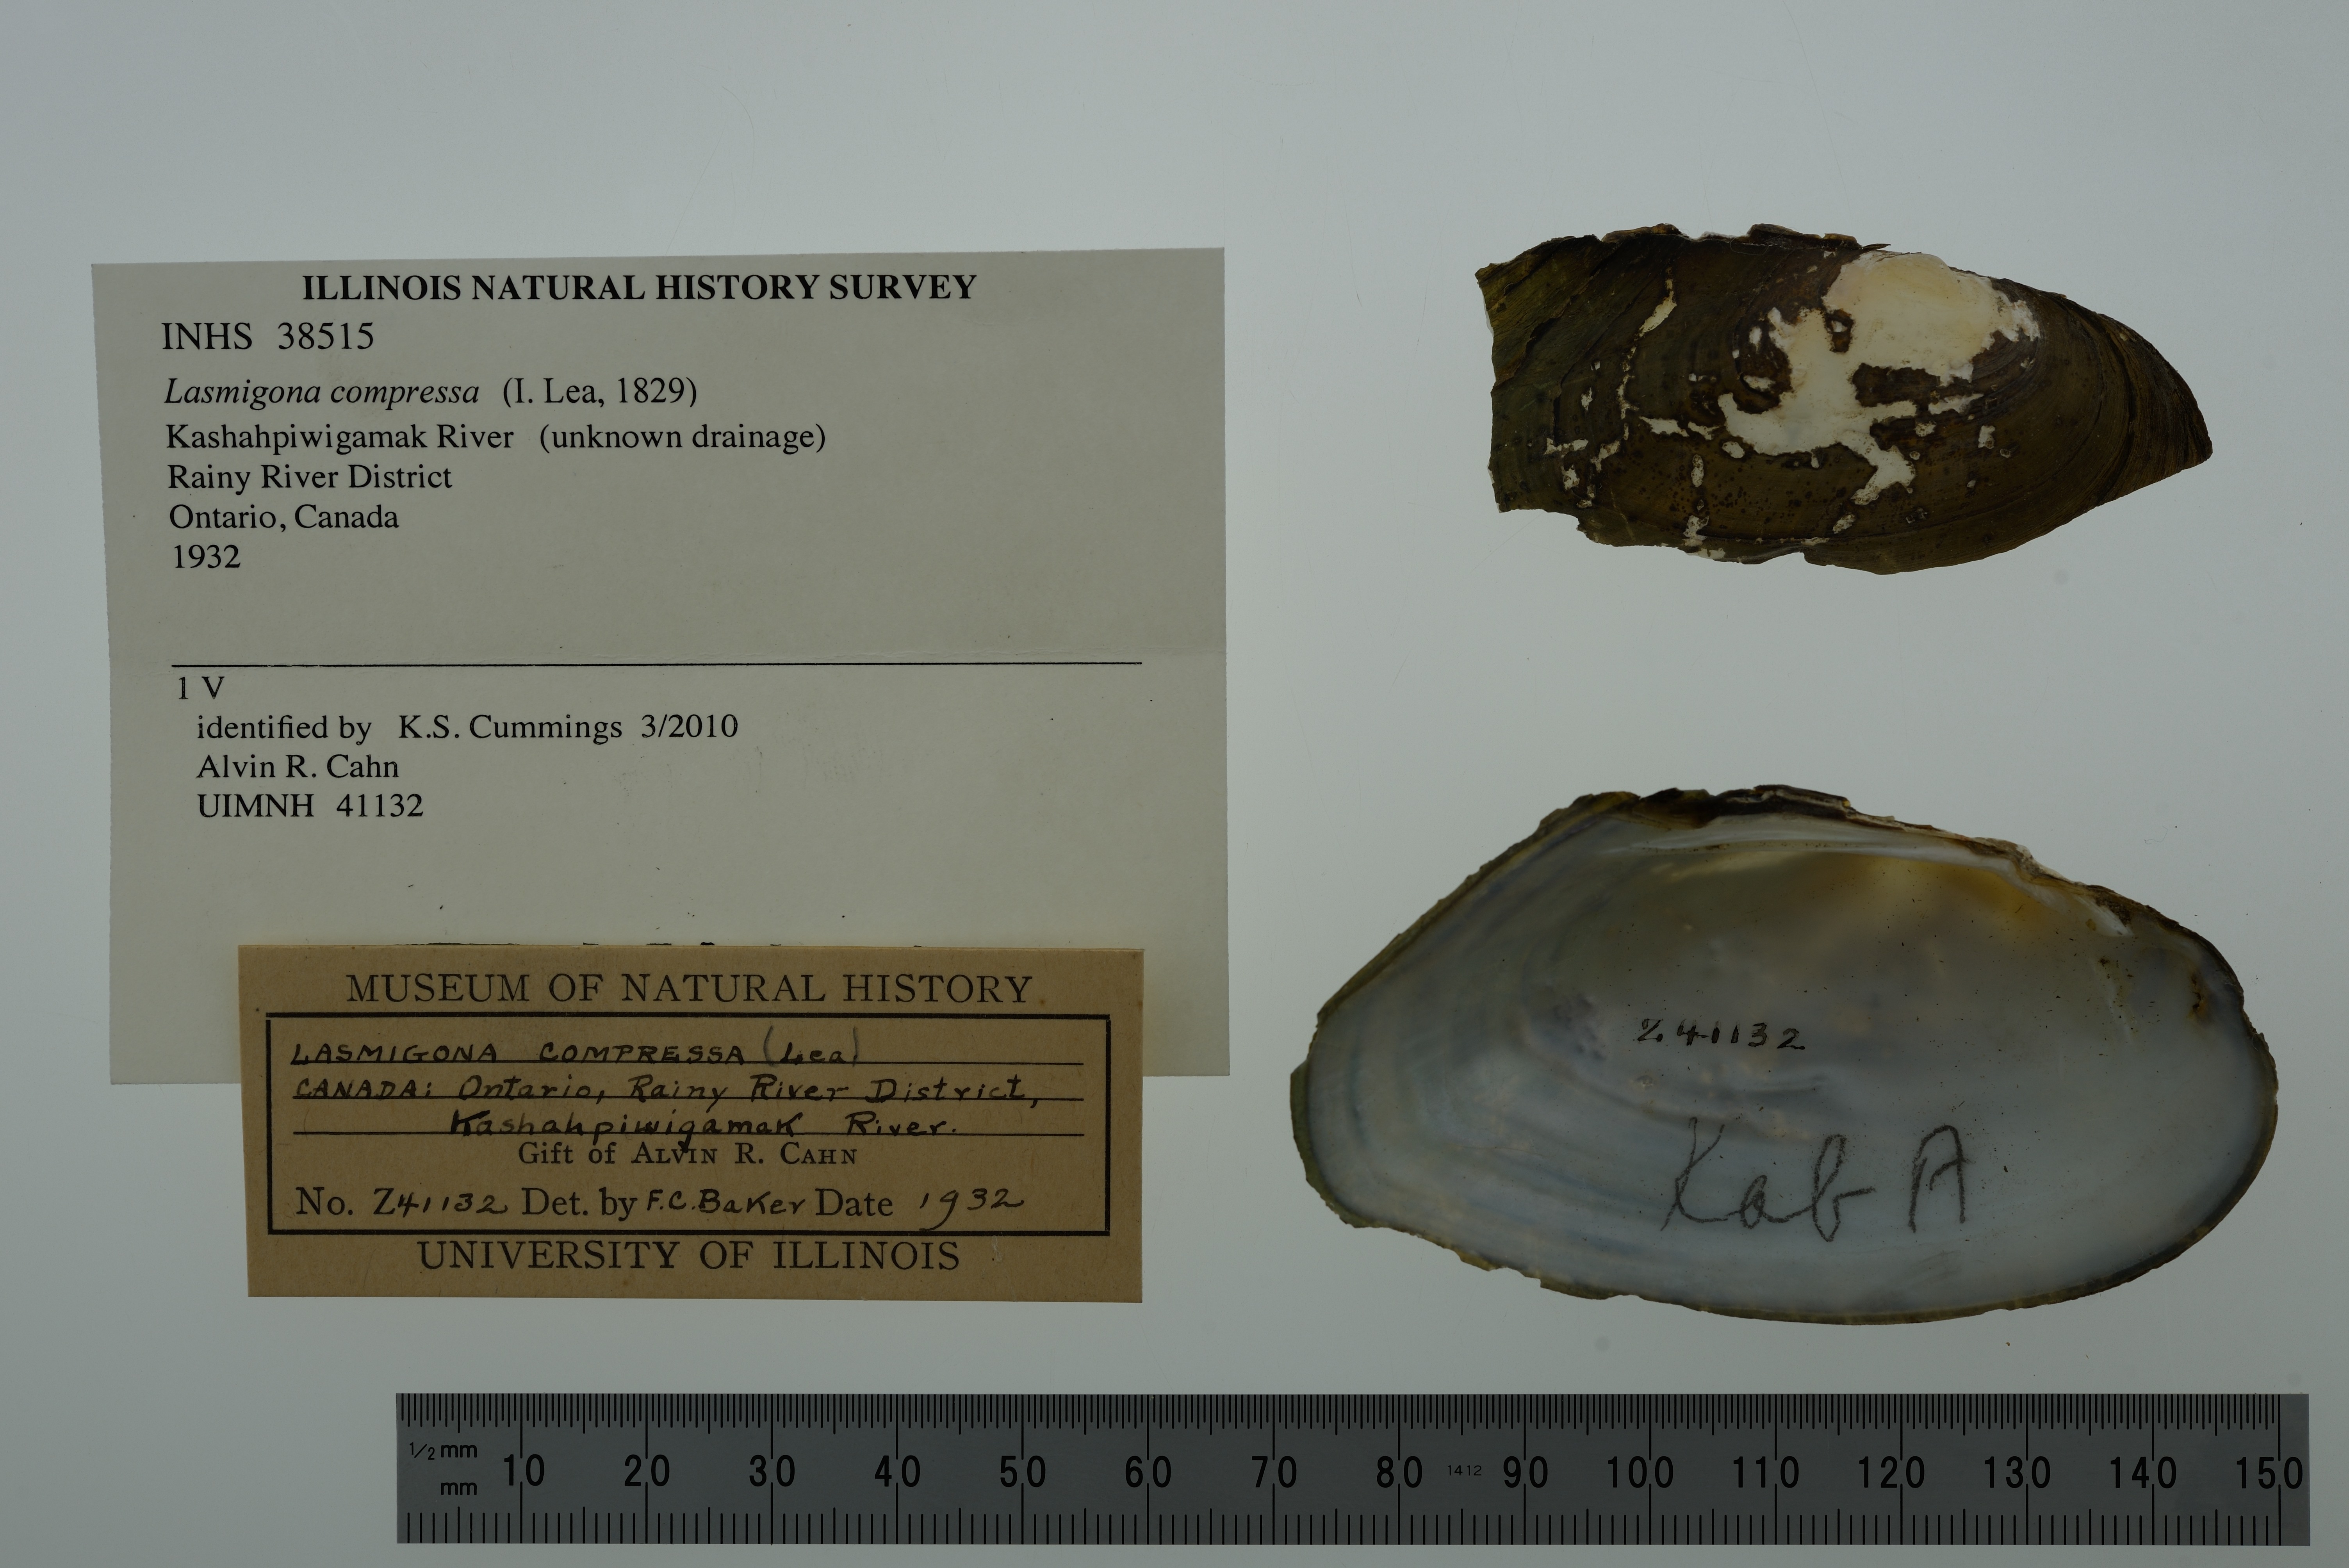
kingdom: Animalia
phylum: Mollusca
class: Bivalvia
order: Unionida
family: Unionidae
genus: Lasmigona
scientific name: Lasmigona compressa
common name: Creek heelsplitter
